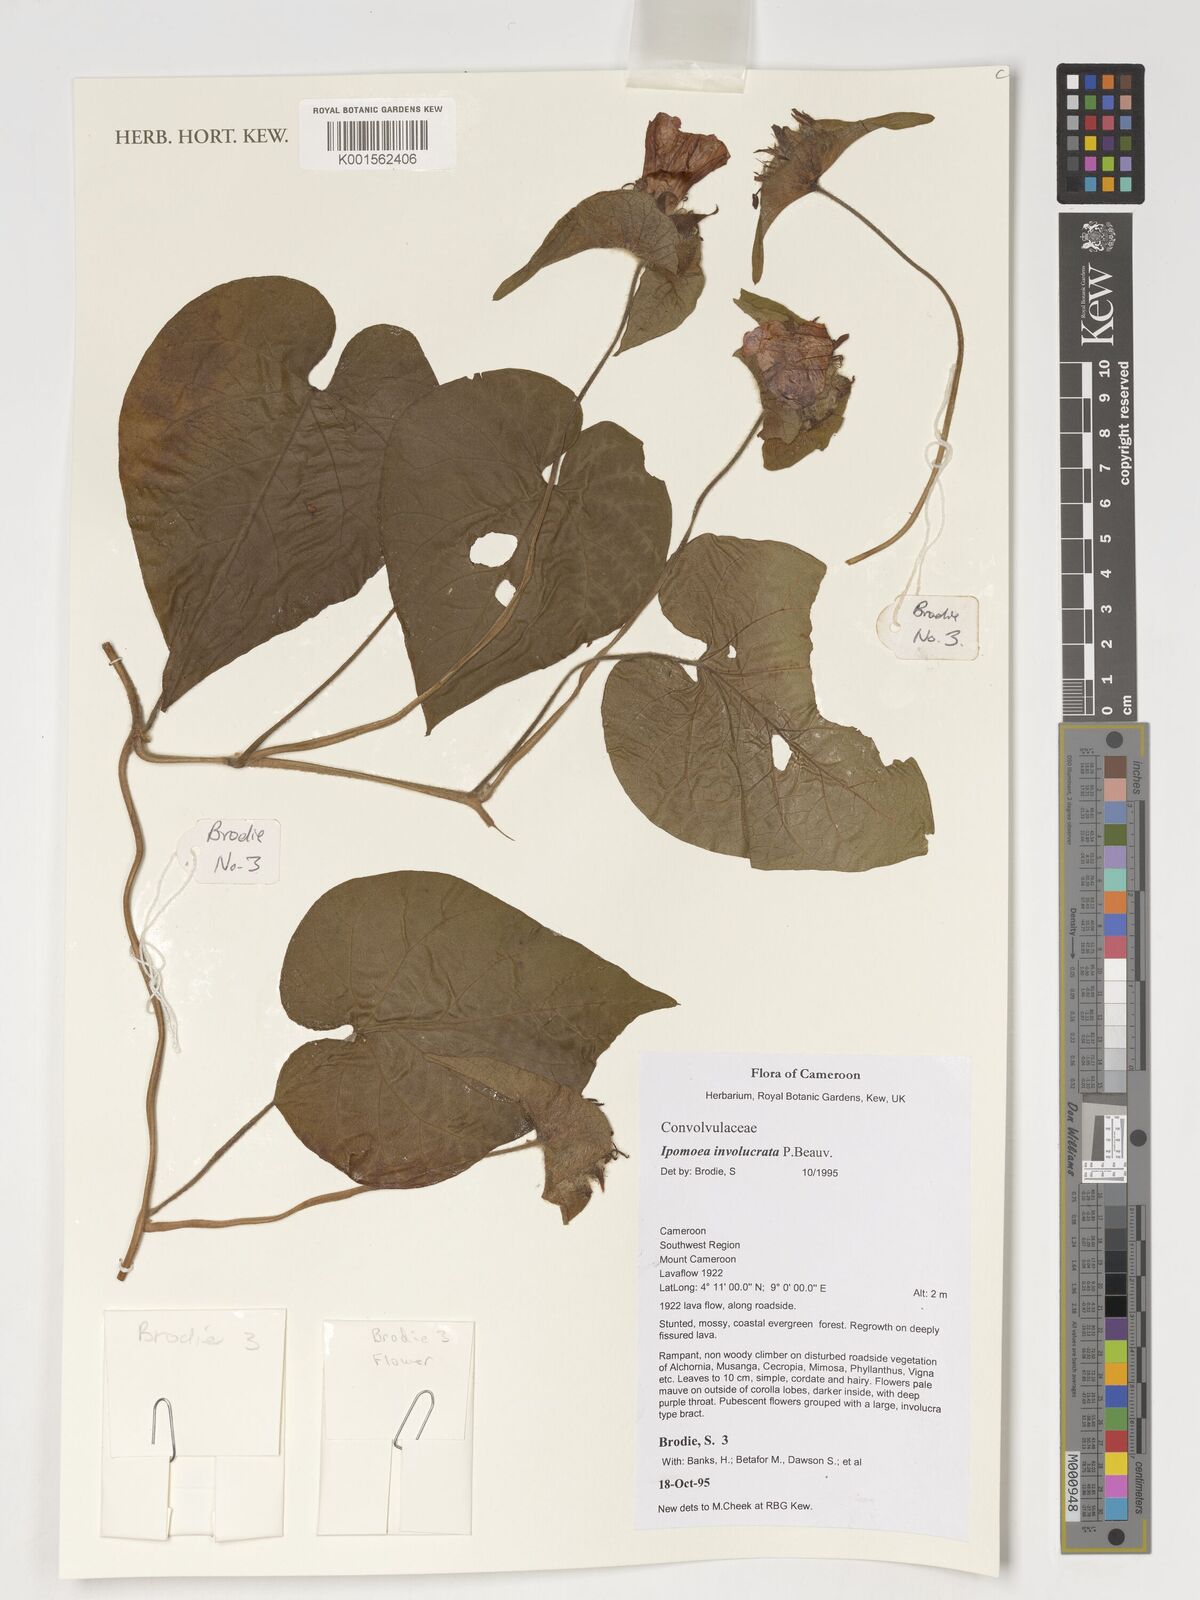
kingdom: Plantae
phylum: Tracheophyta
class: Magnoliopsida
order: Solanales
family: Convolvulaceae
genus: Ipomoea
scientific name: Ipomoea involucrata
